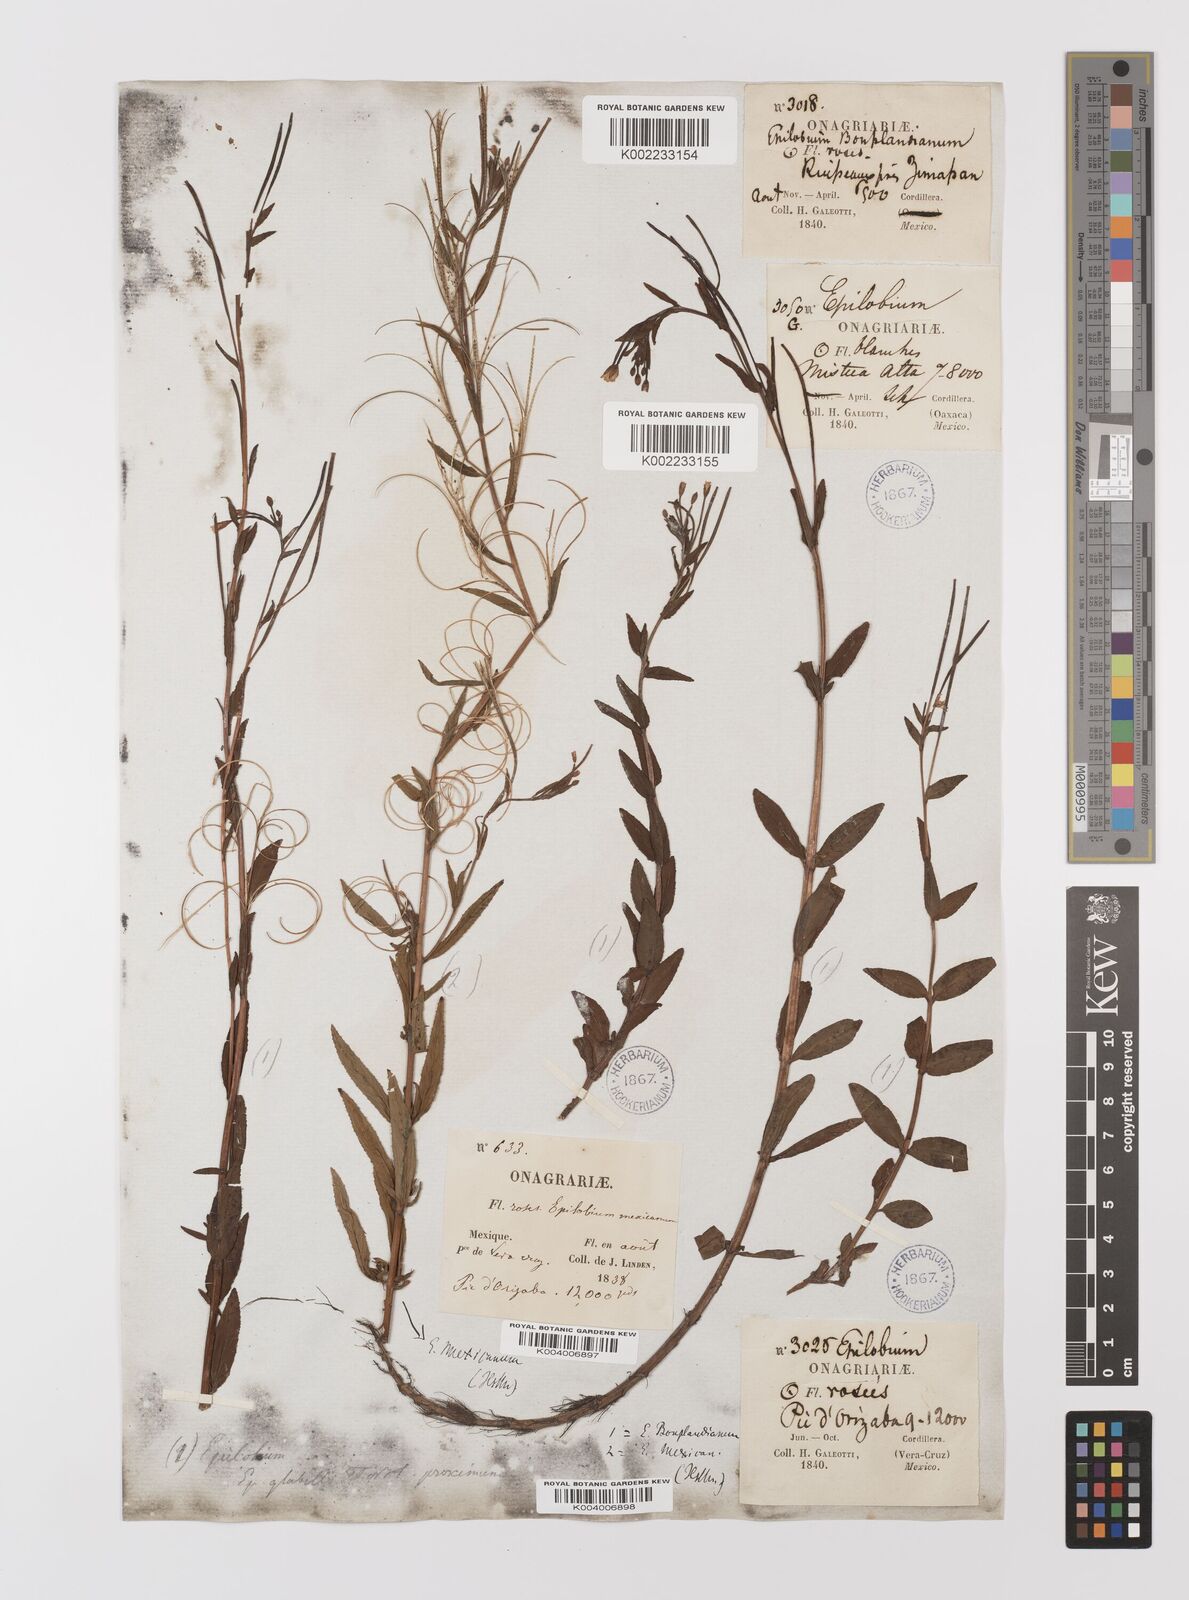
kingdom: Plantae
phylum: Tracheophyta
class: Magnoliopsida
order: Myrtales
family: Onagraceae
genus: Epilobium
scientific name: Epilobium
